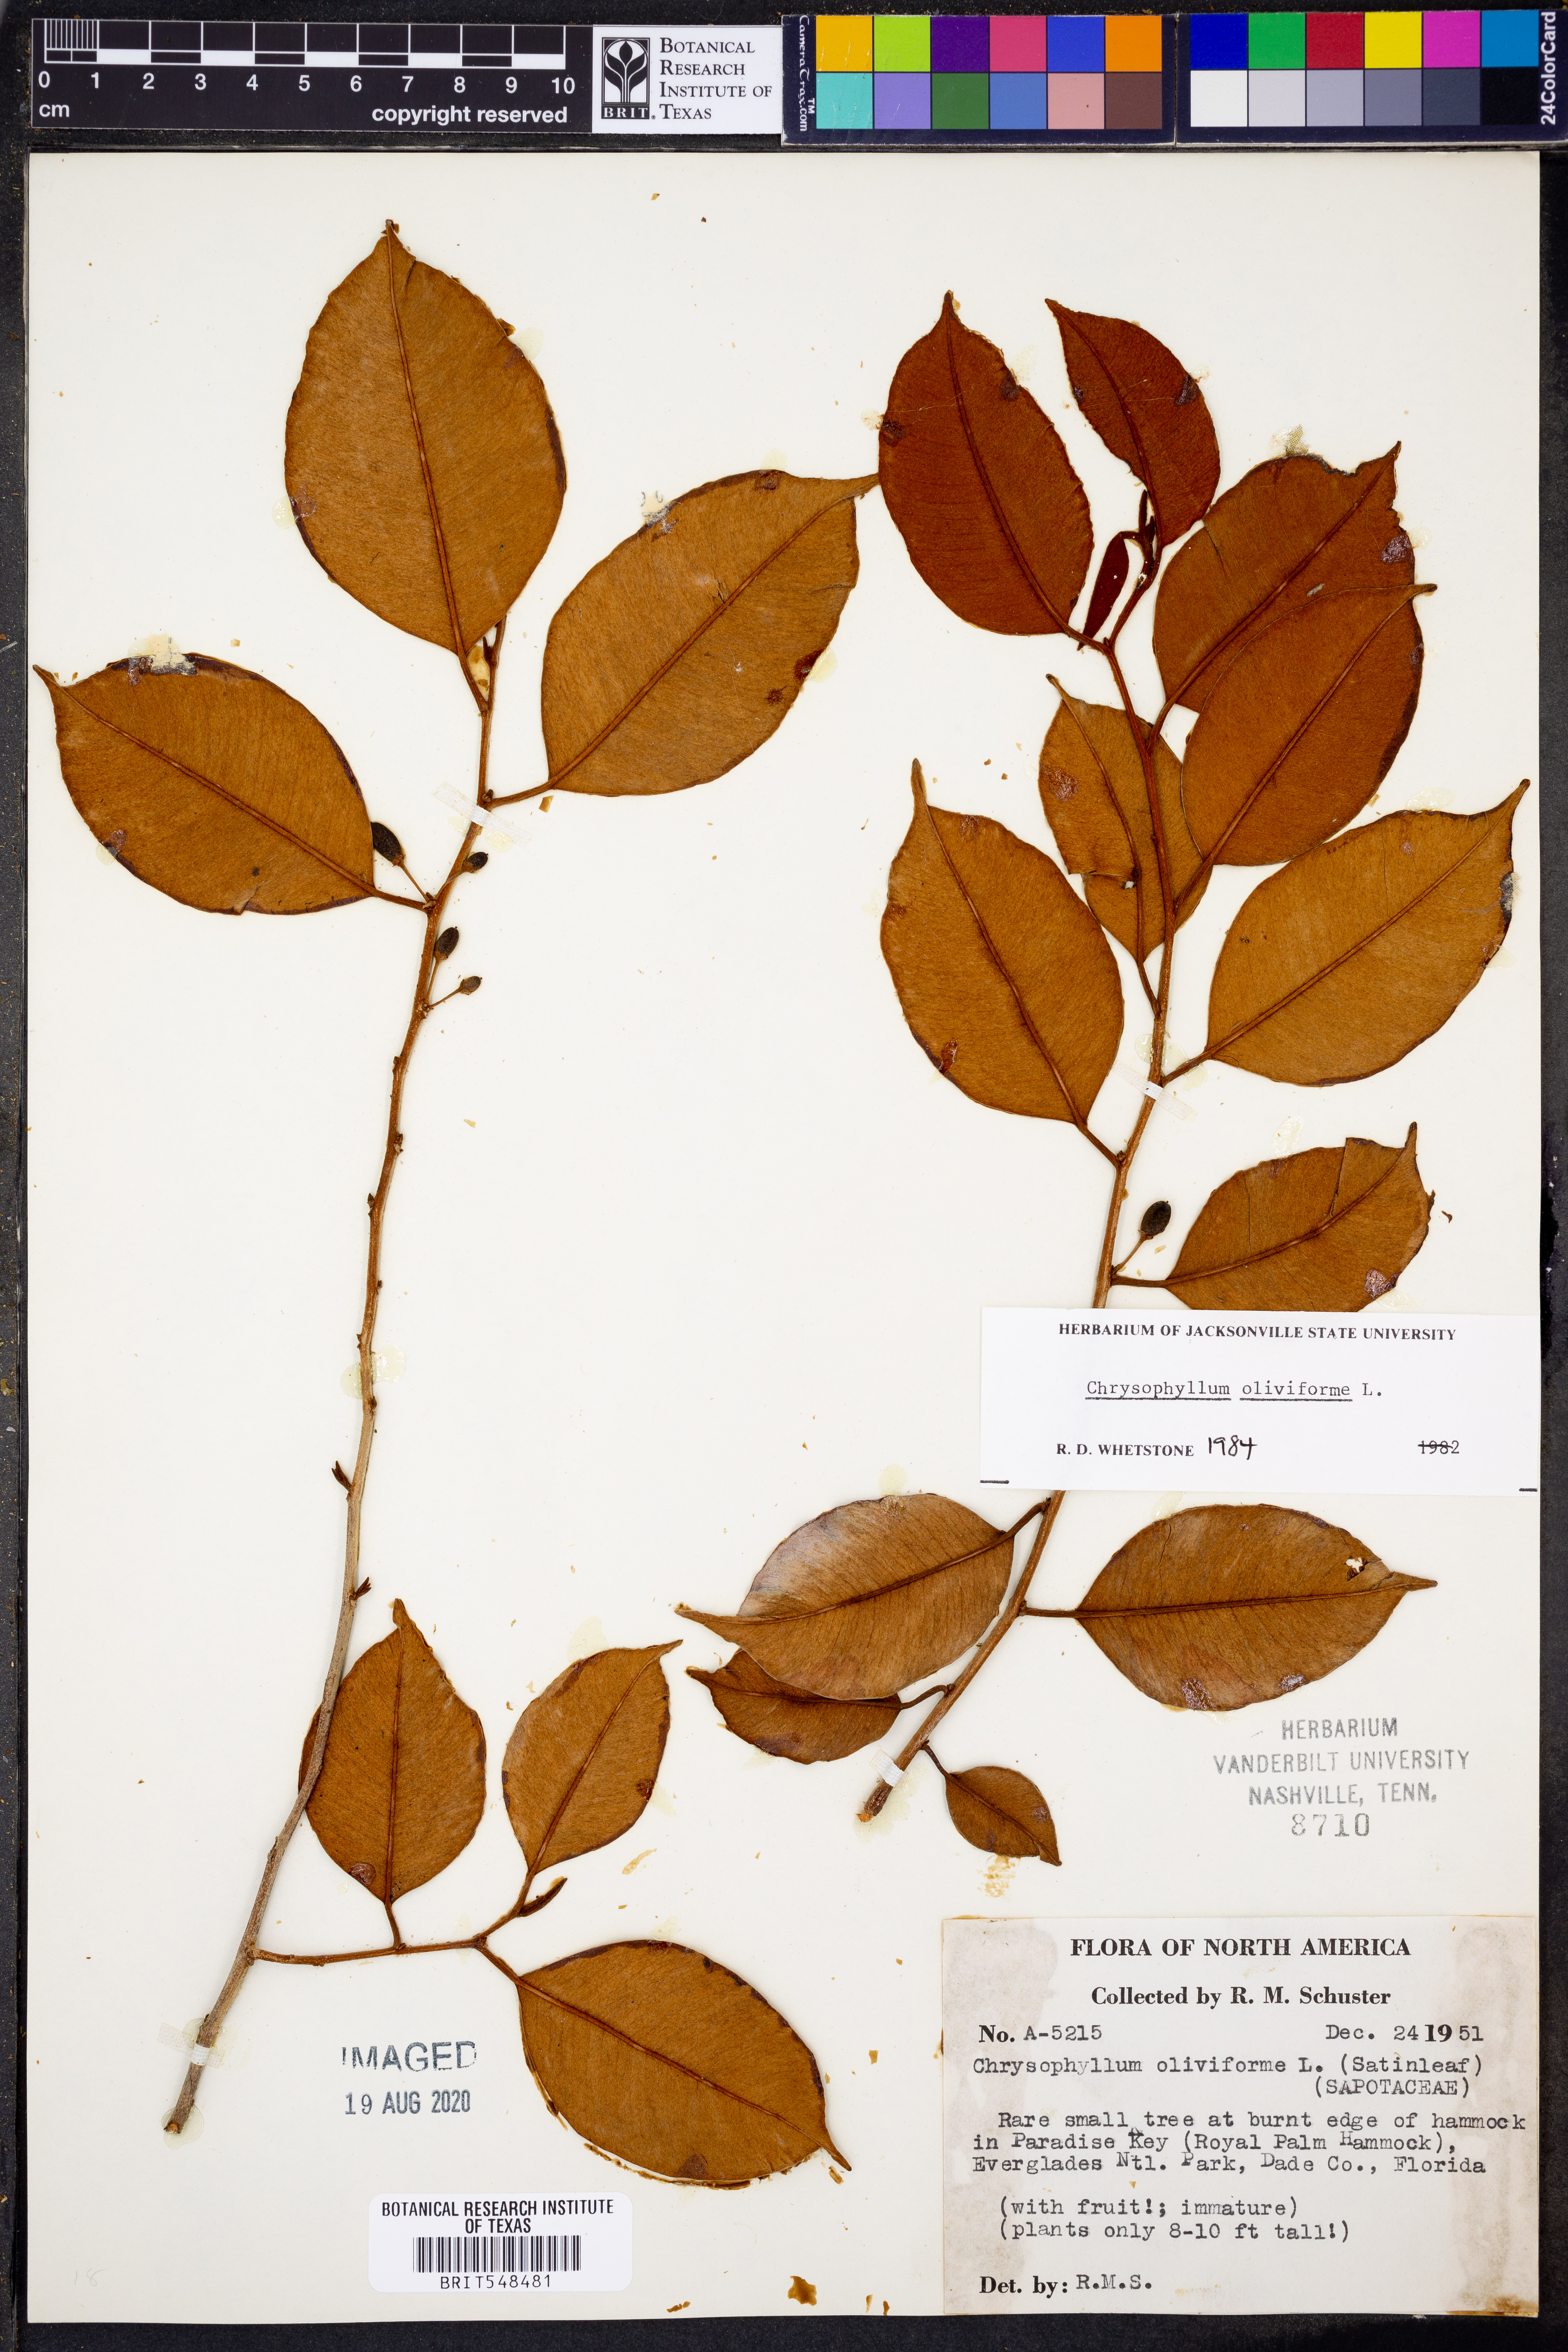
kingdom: Plantae
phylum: Tracheophyta
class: Magnoliopsida
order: Ericales
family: Sapotaceae
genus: Chrysophyllum
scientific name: Chrysophyllum oliviforme
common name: Satinleaf
